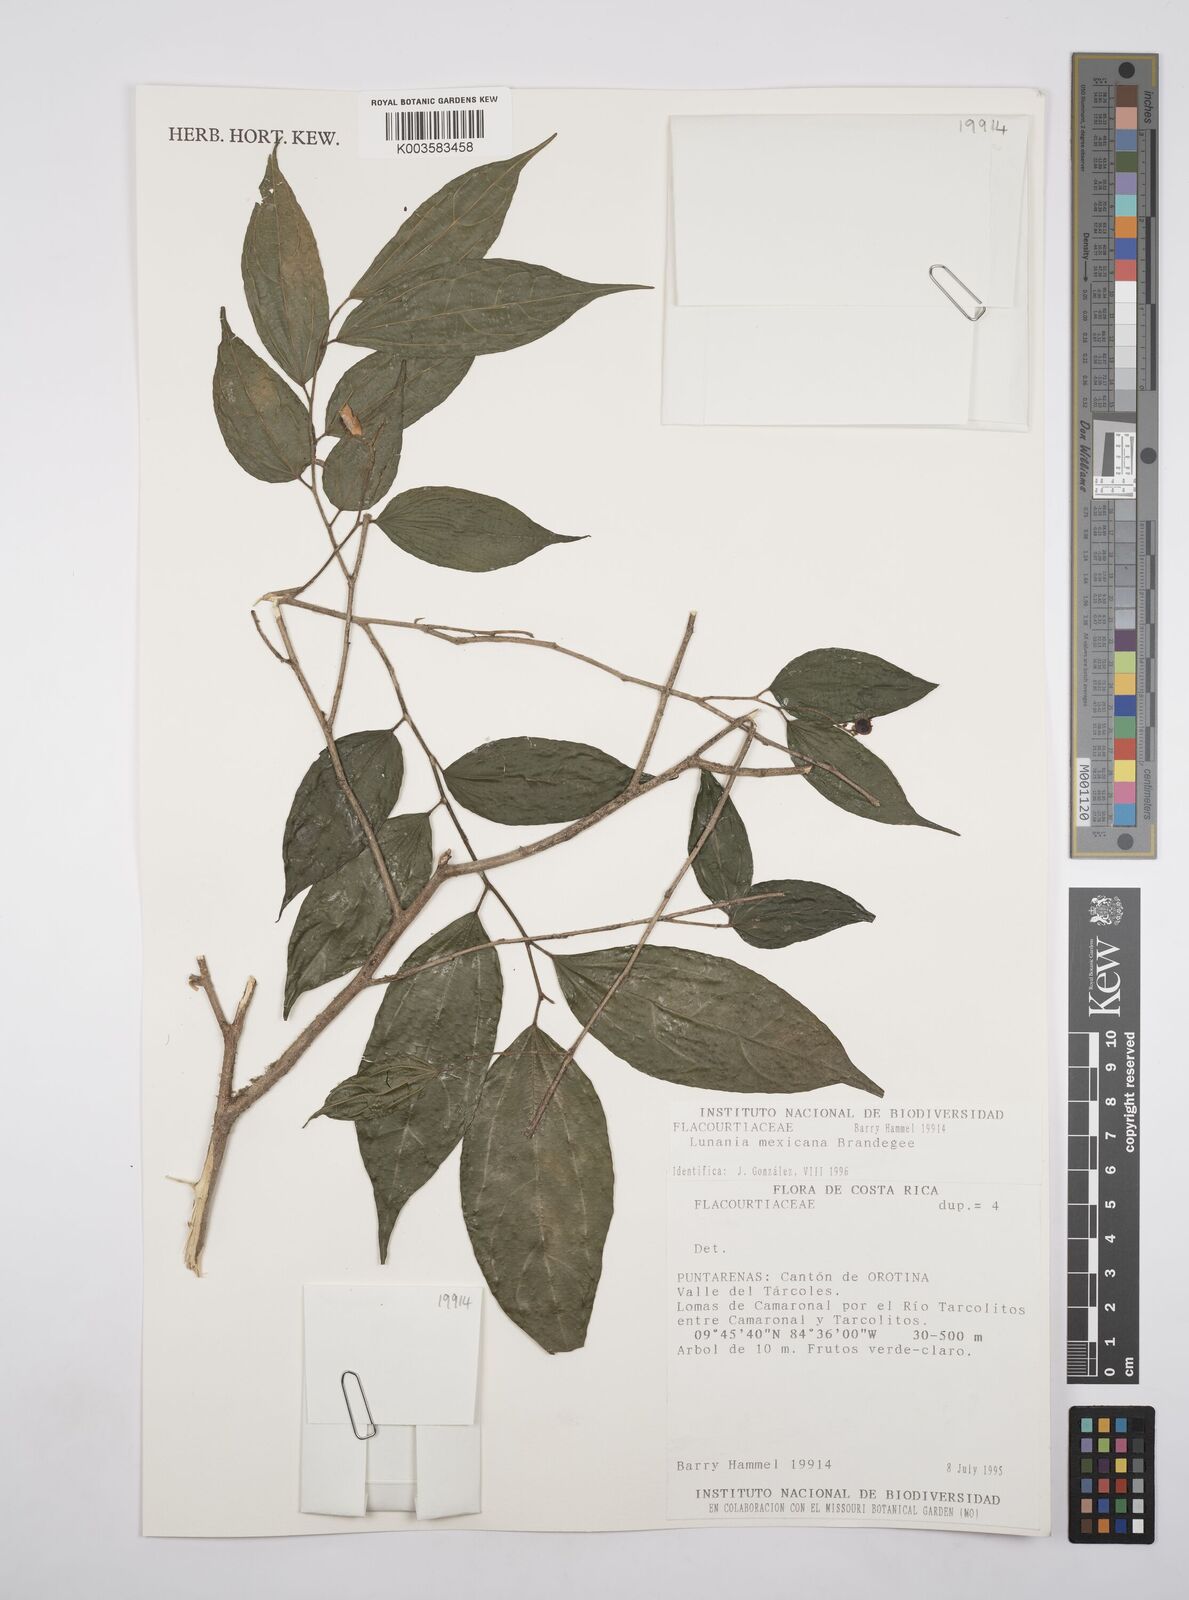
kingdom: Plantae
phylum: Tracheophyta
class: Magnoliopsida
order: Malpighiales
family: Salicaceae
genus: Lunania
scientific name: Lunania mexicana
